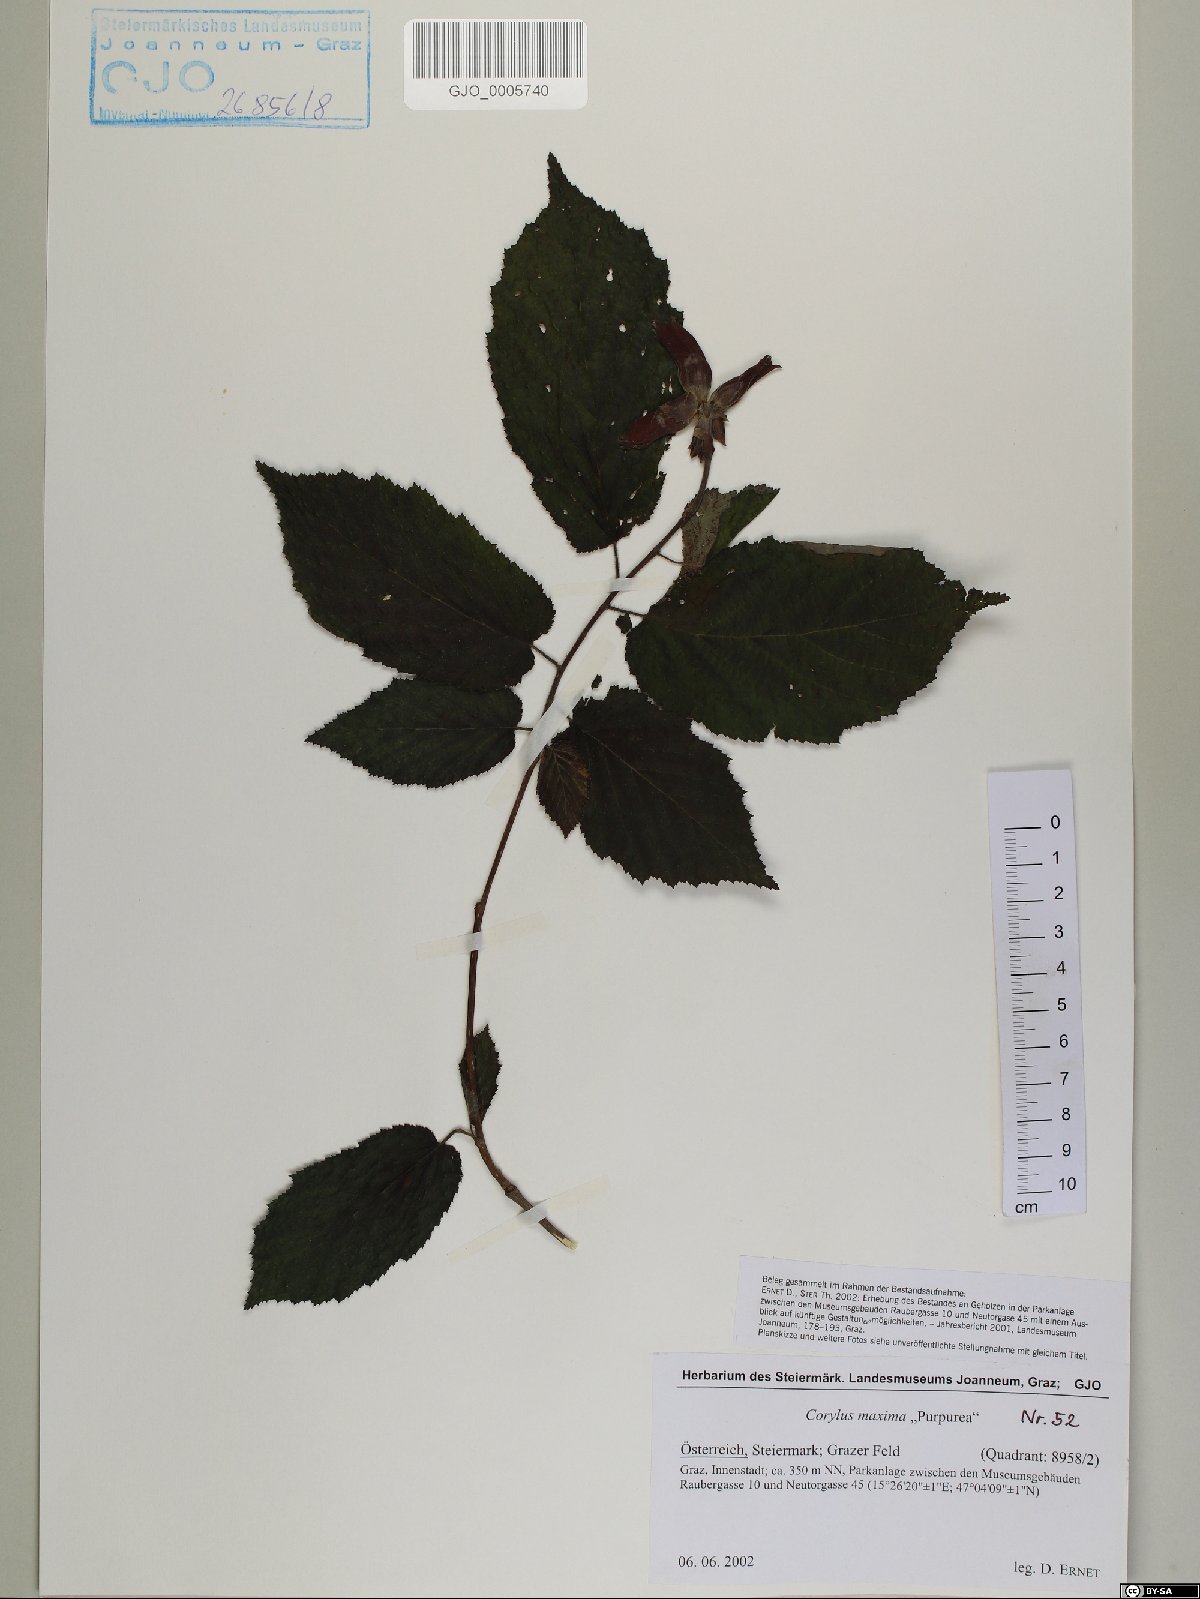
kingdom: Plantae
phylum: Tracheophyta
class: Magnoliopsida
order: Fagales
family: Betulaceae
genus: Corylus
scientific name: Corylus maxima
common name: Filbert
